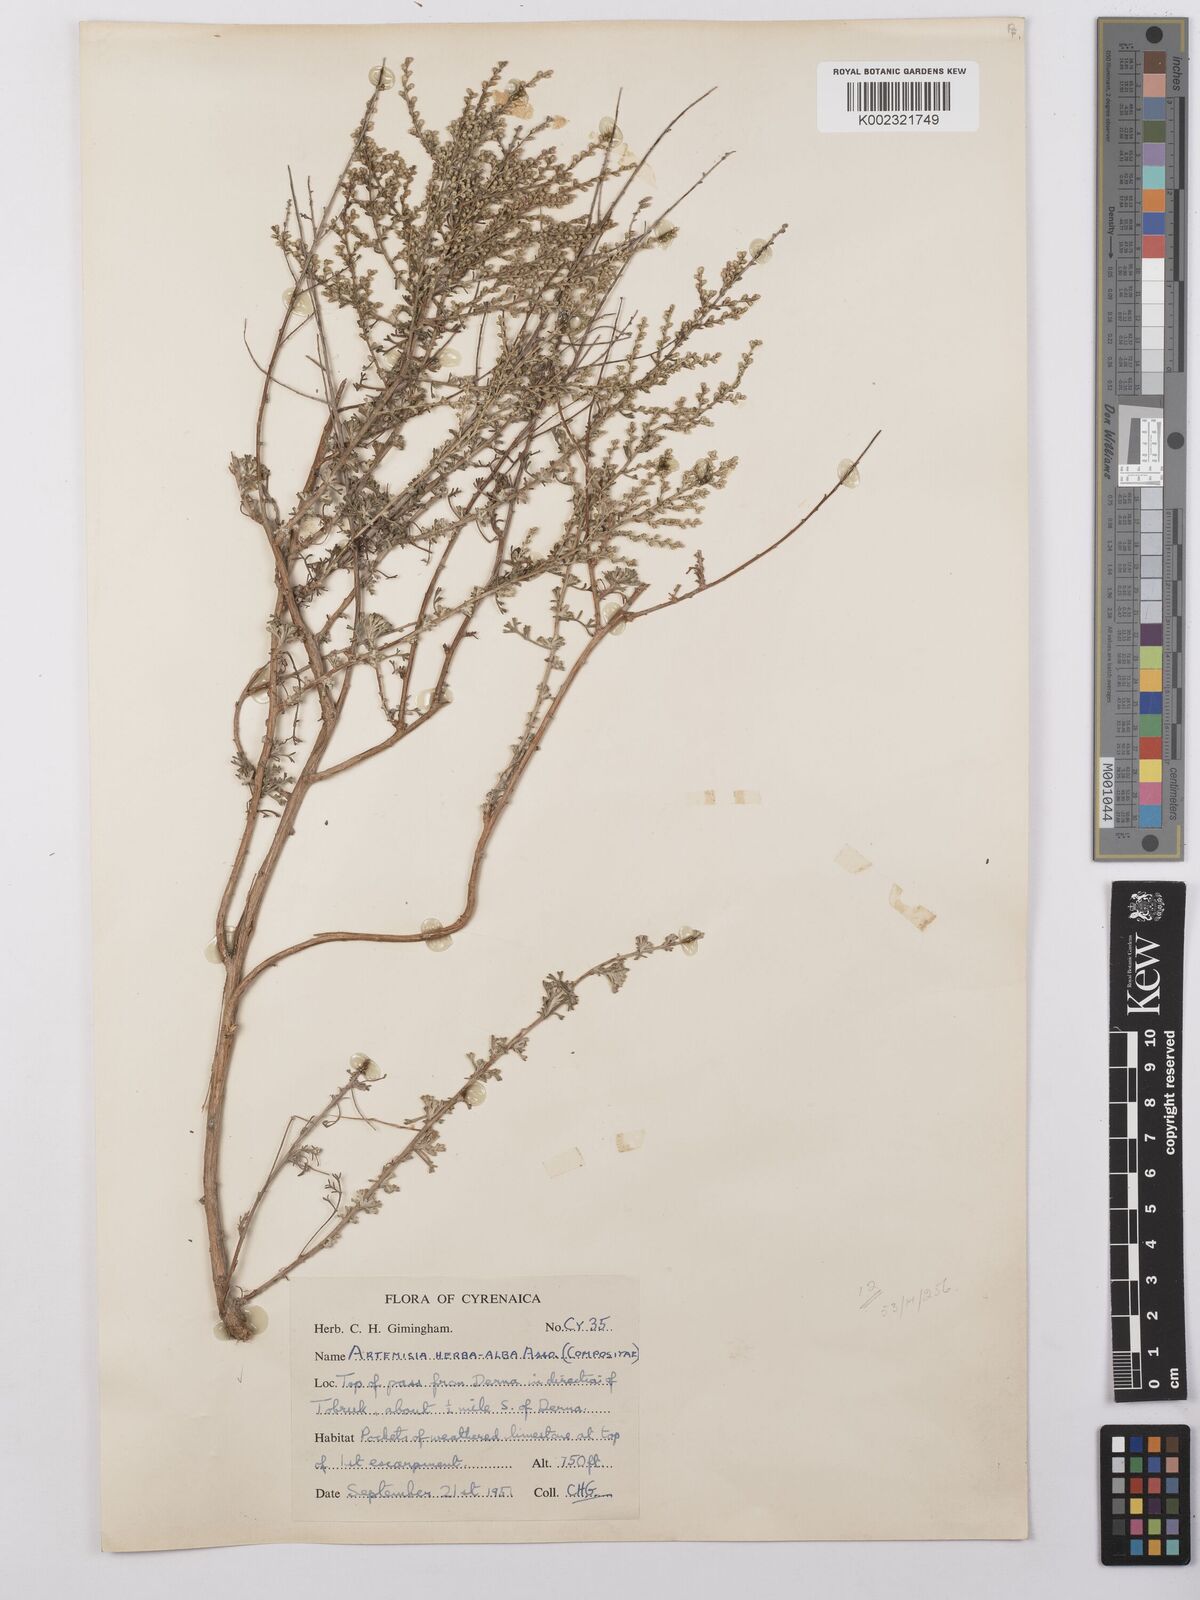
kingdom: Plantae
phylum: Tracheophyta
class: Magnoliopsida
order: Asterales
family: Asteraceae
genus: Artemisia
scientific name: Artemisia herba-alba
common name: White wormwood
